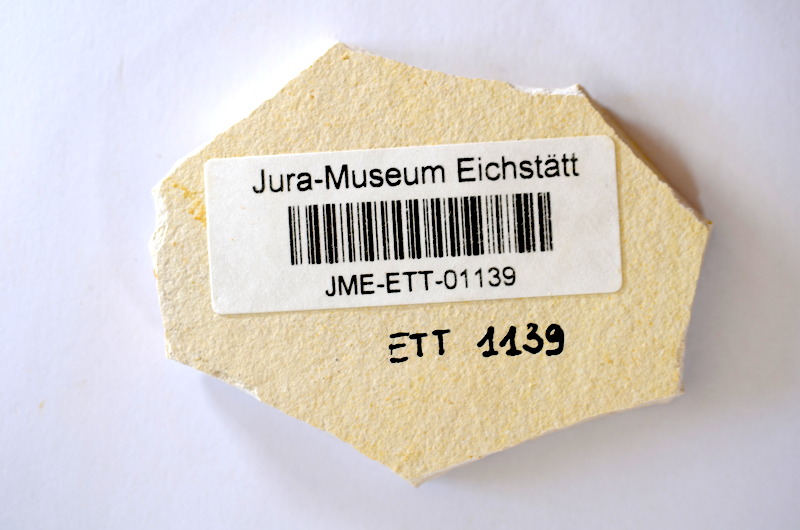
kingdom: Animalia
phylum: Chordata
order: Salmoniformes
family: Orthogonikleithridae
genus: Orthogonikleithrus
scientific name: Orthogonikleithrus hoelli
